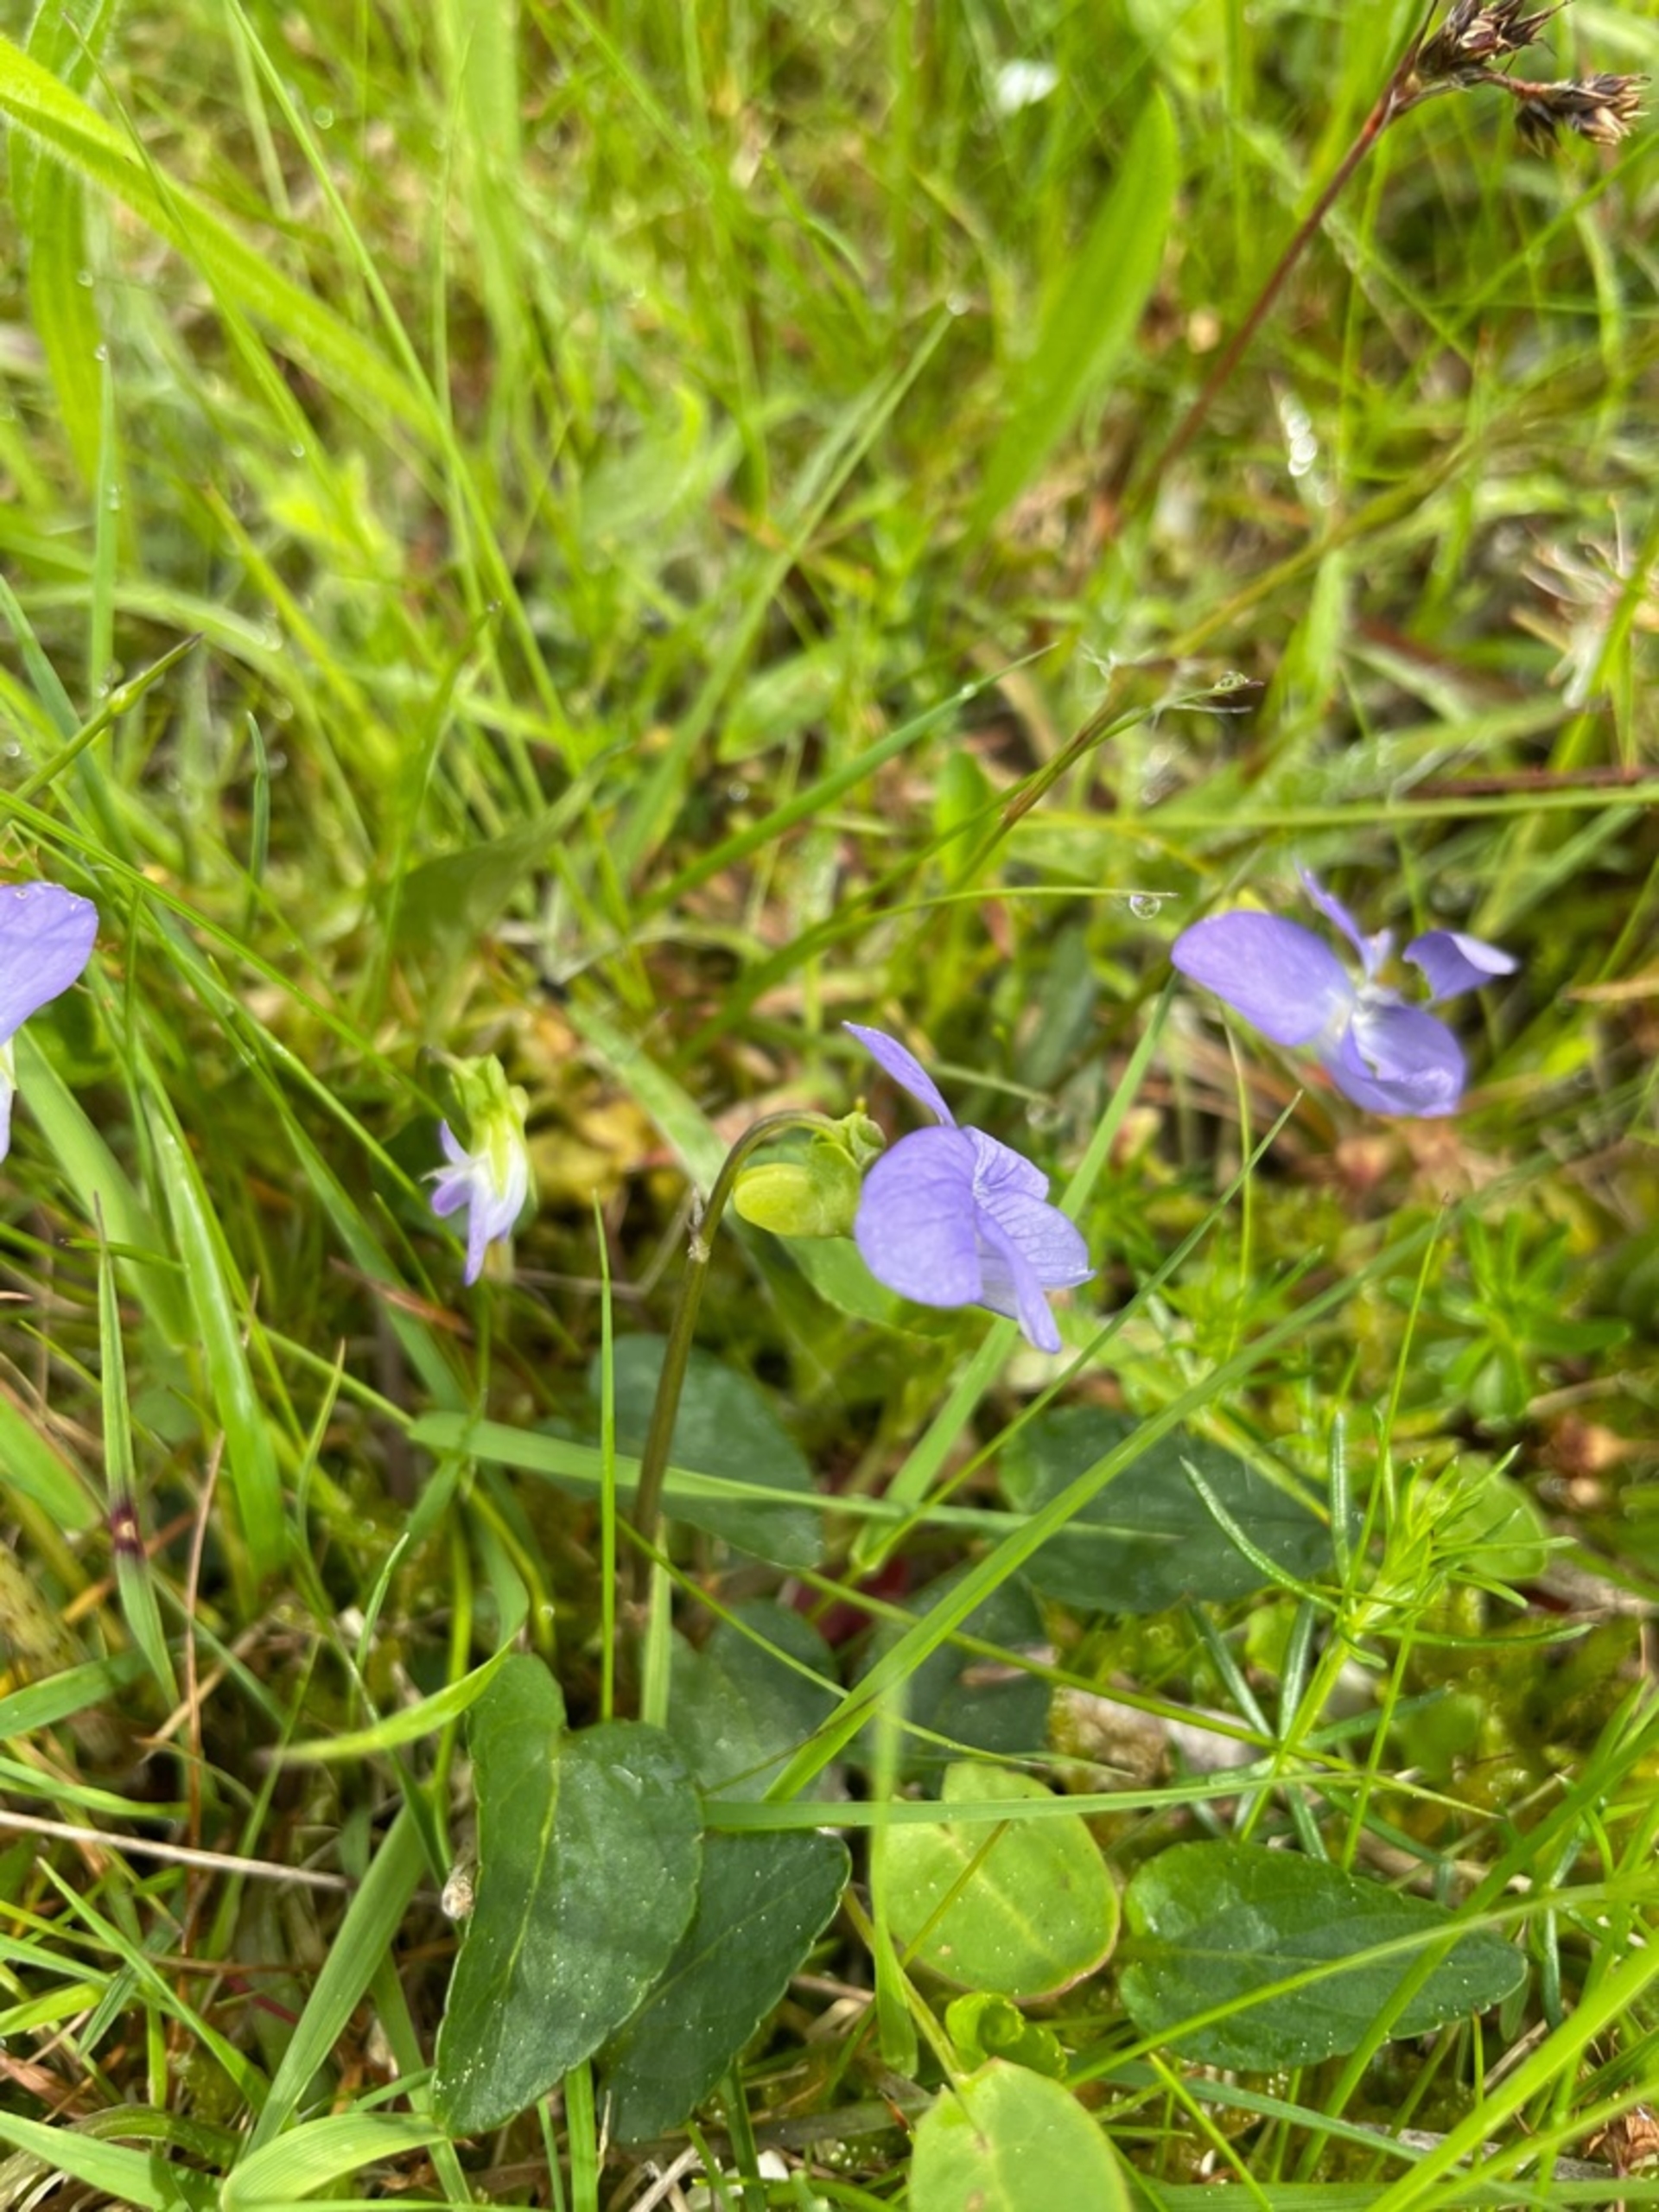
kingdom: Plantae
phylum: Tracheophyta
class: Magnoliopsida
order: Malpighiales
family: Violaceae
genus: Viola
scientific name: Viola canina
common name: Hunde-viol
